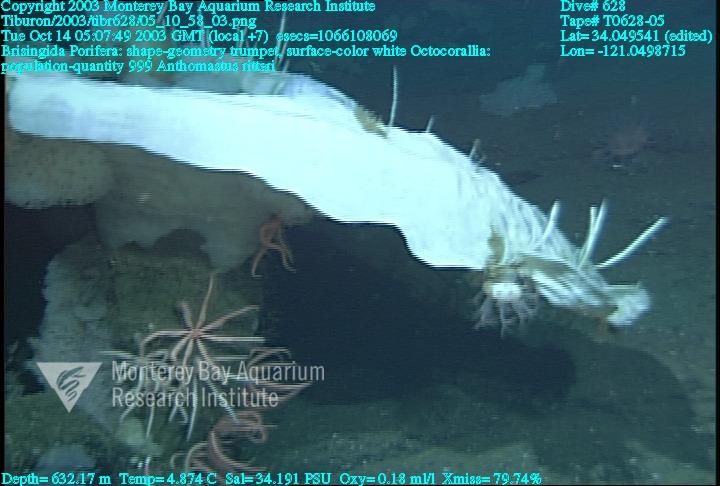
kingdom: Animalia
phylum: Porifera
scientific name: Porifera
